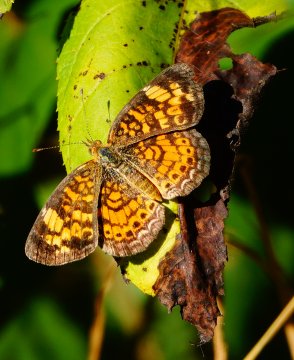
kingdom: Animalia
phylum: Arthropoda
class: Insecta
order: Lepidoptera
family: Nymphalidae
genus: Phyciodes
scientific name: Phyciodes tharos
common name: Pearl Crescent
